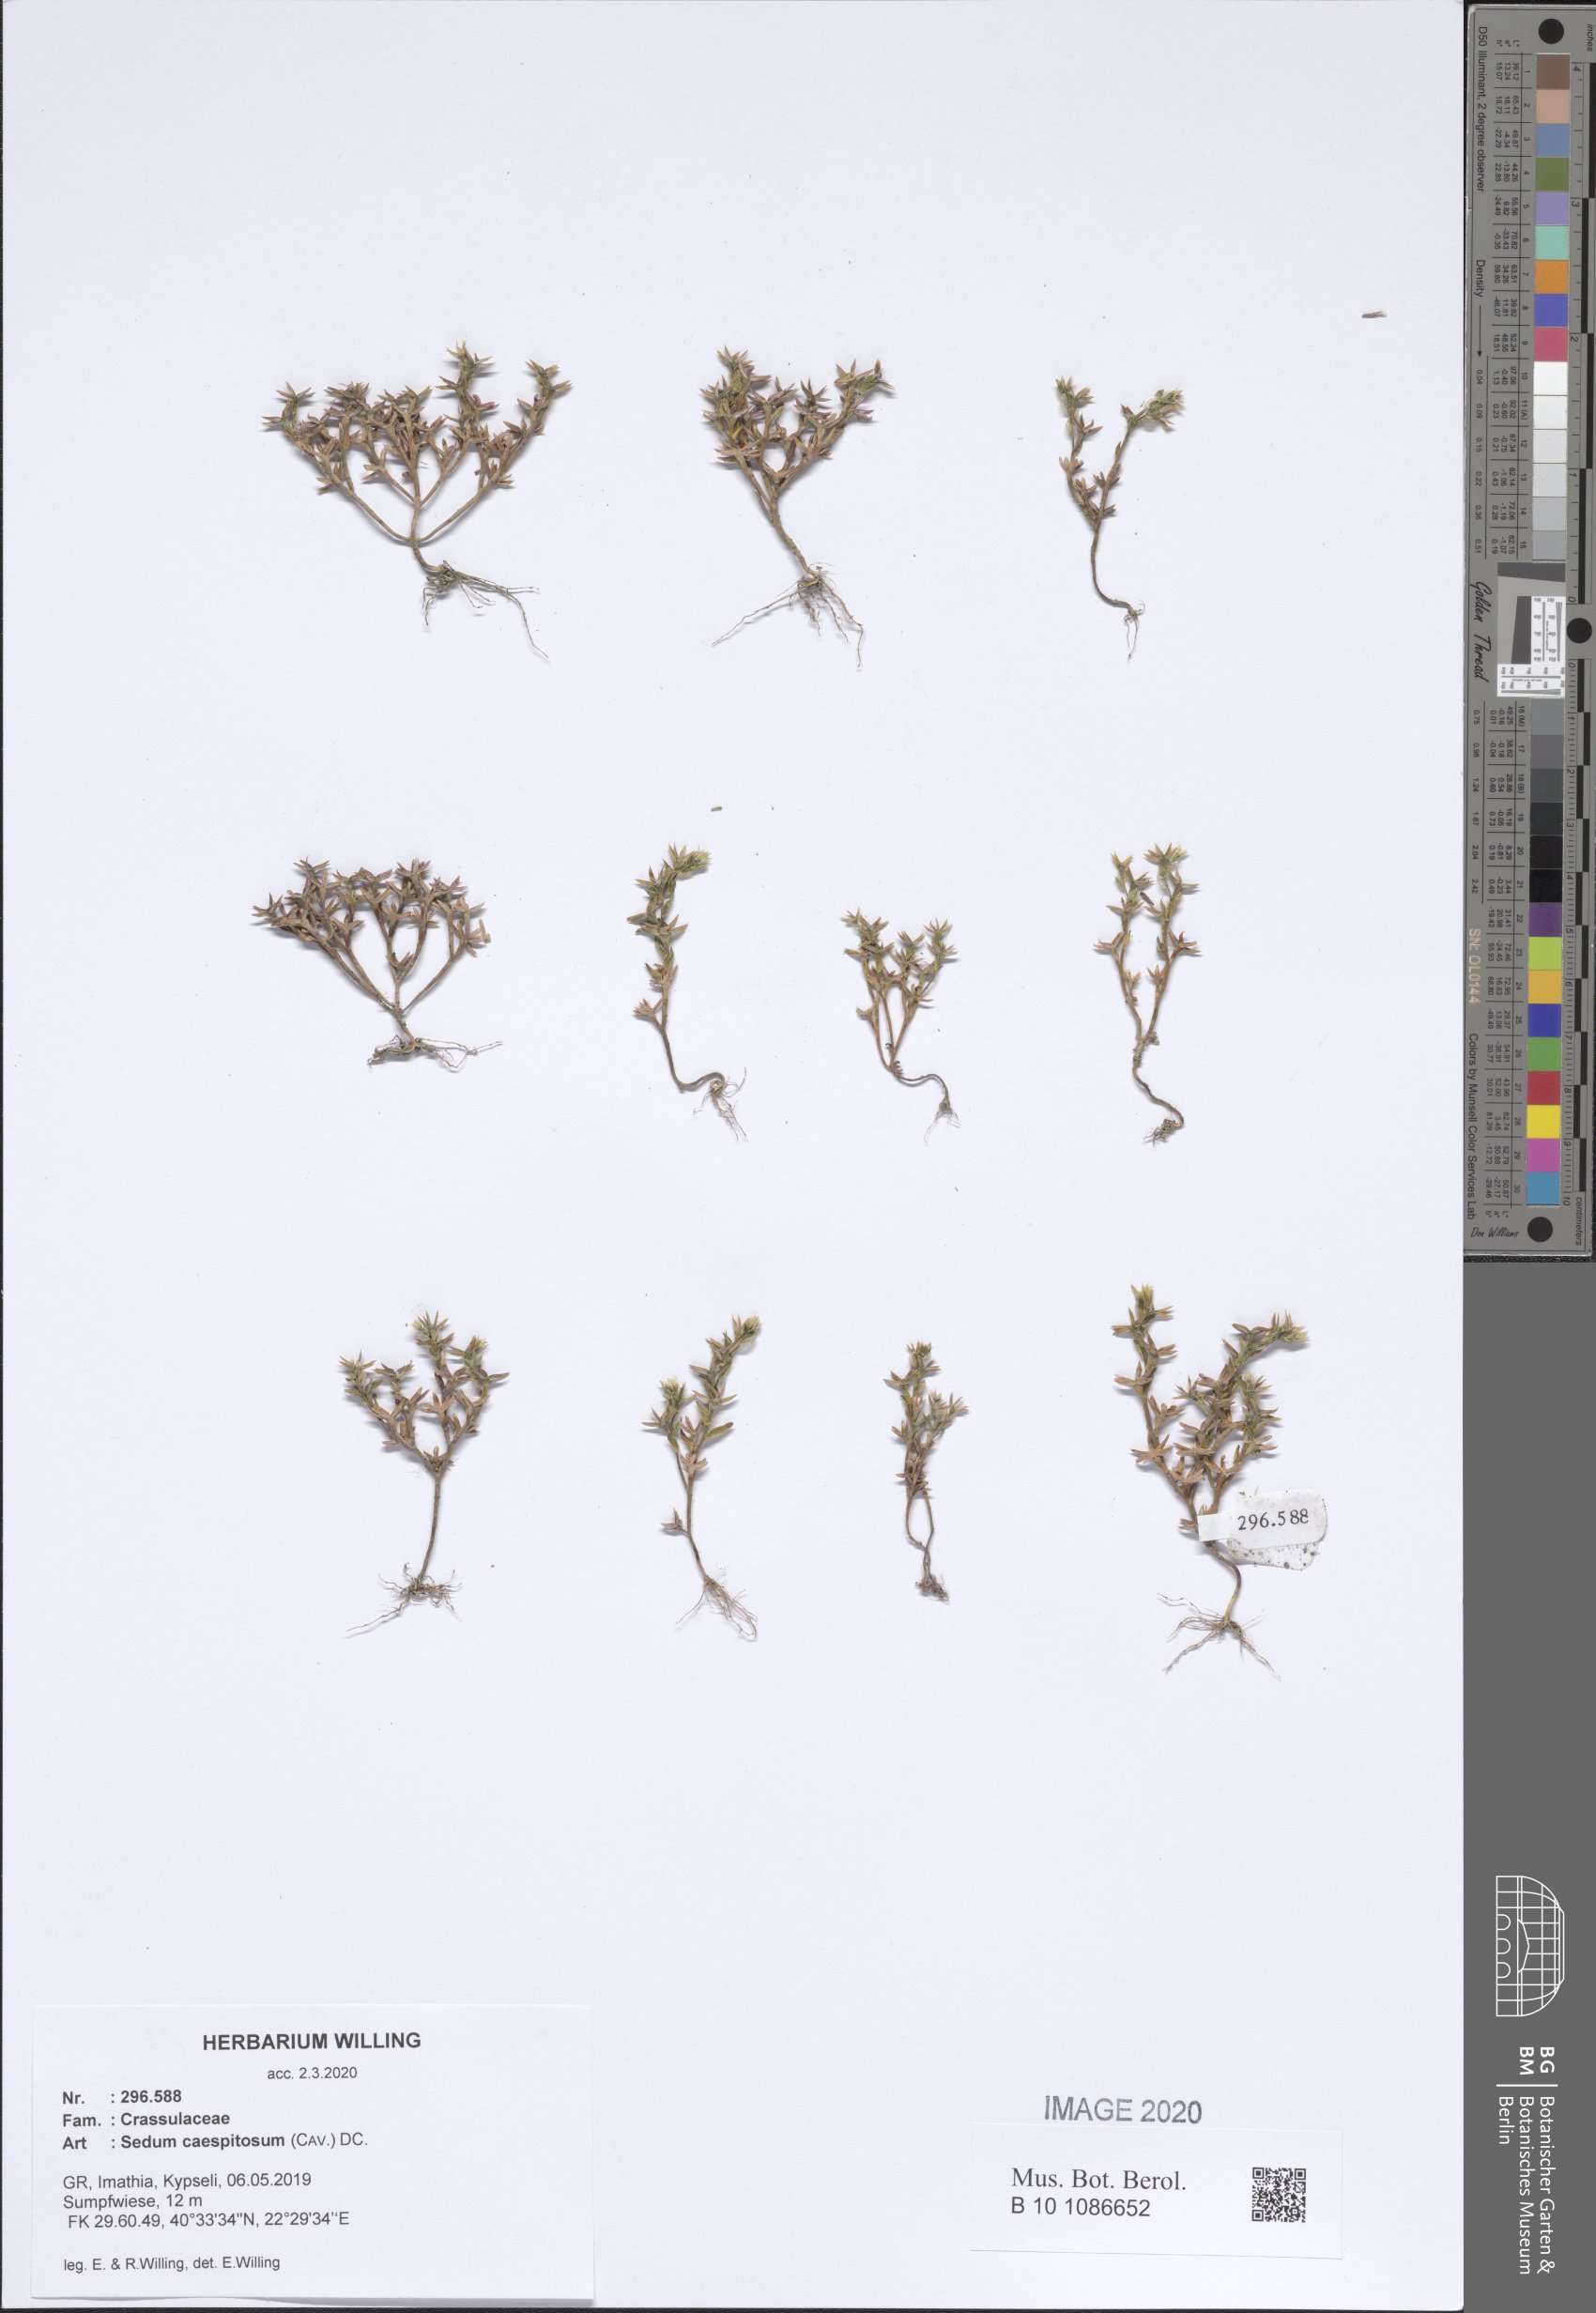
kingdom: Plantae
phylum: Tracheophyta
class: Magnoliopsida
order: Saxifragales
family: Crassulaceae
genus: Sedum
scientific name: Sedum cespitosum
